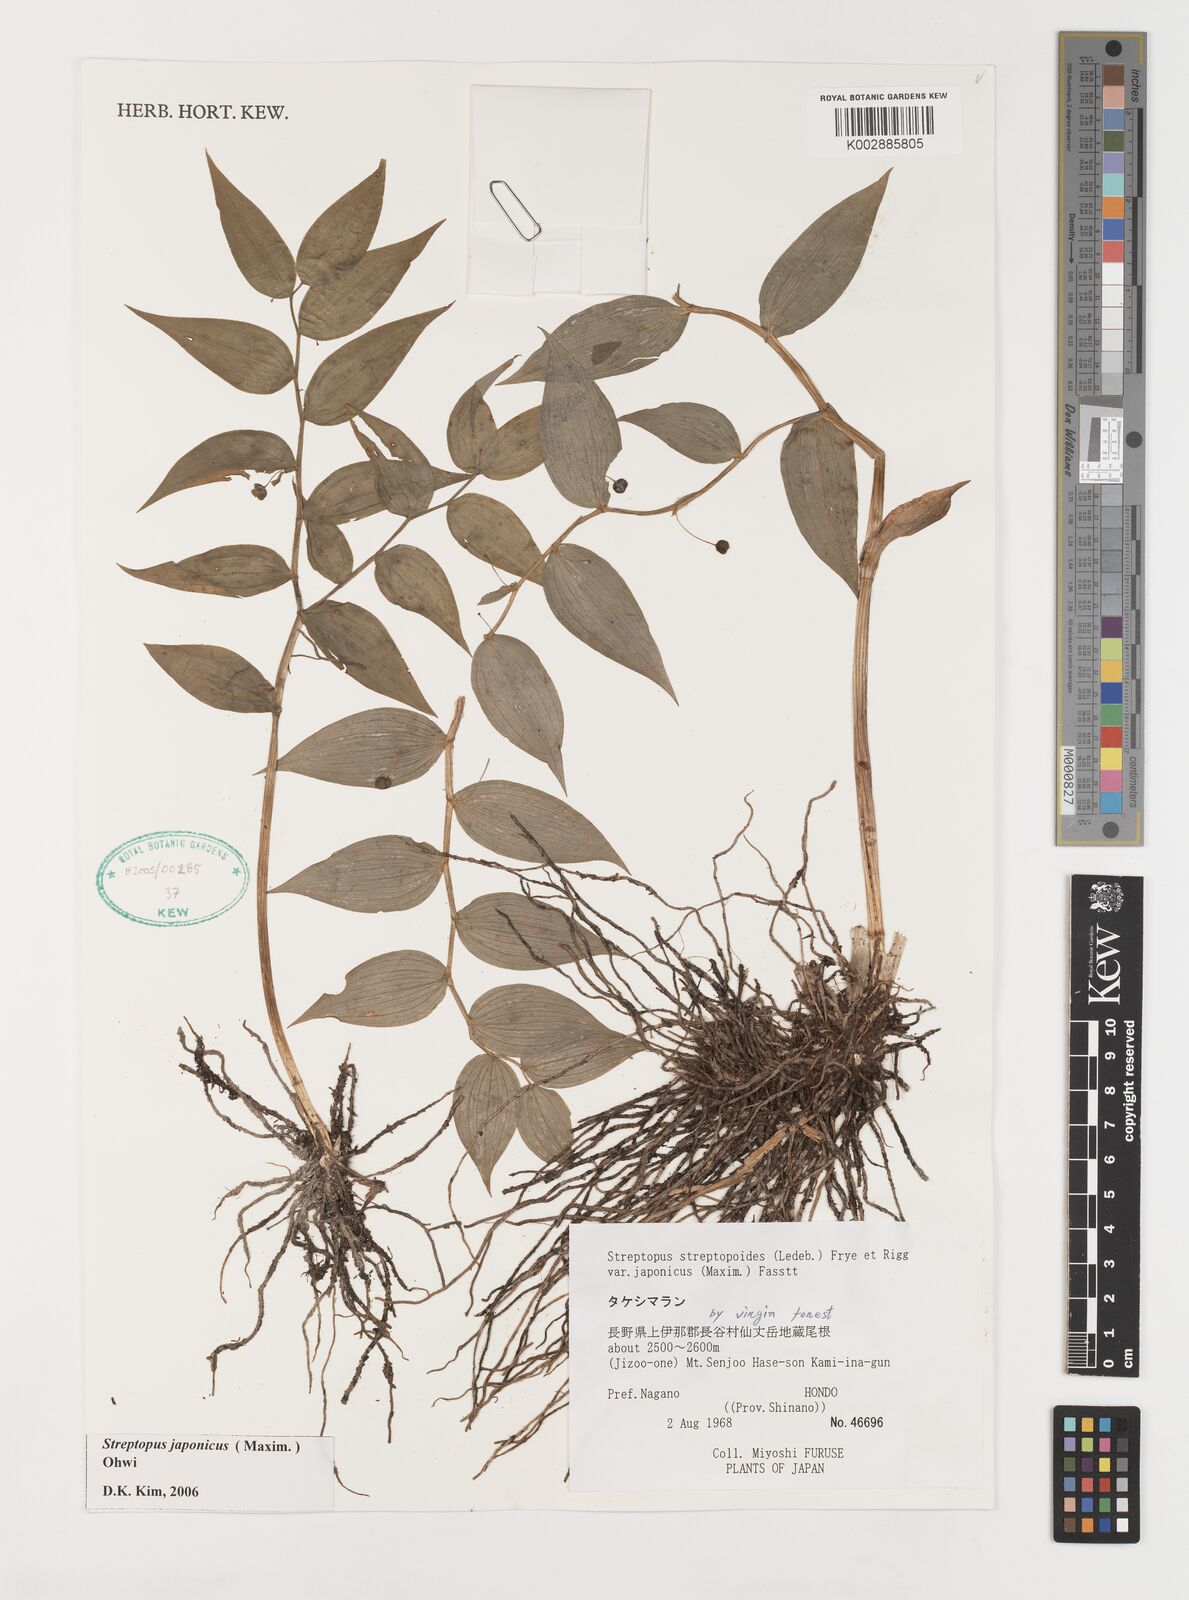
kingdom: Plantae
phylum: Tracheophyta
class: Liliopsida
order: Liliales
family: Liliaceae
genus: Streptopus
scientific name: Streptopus streptopoides
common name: Small twisted-stalk
